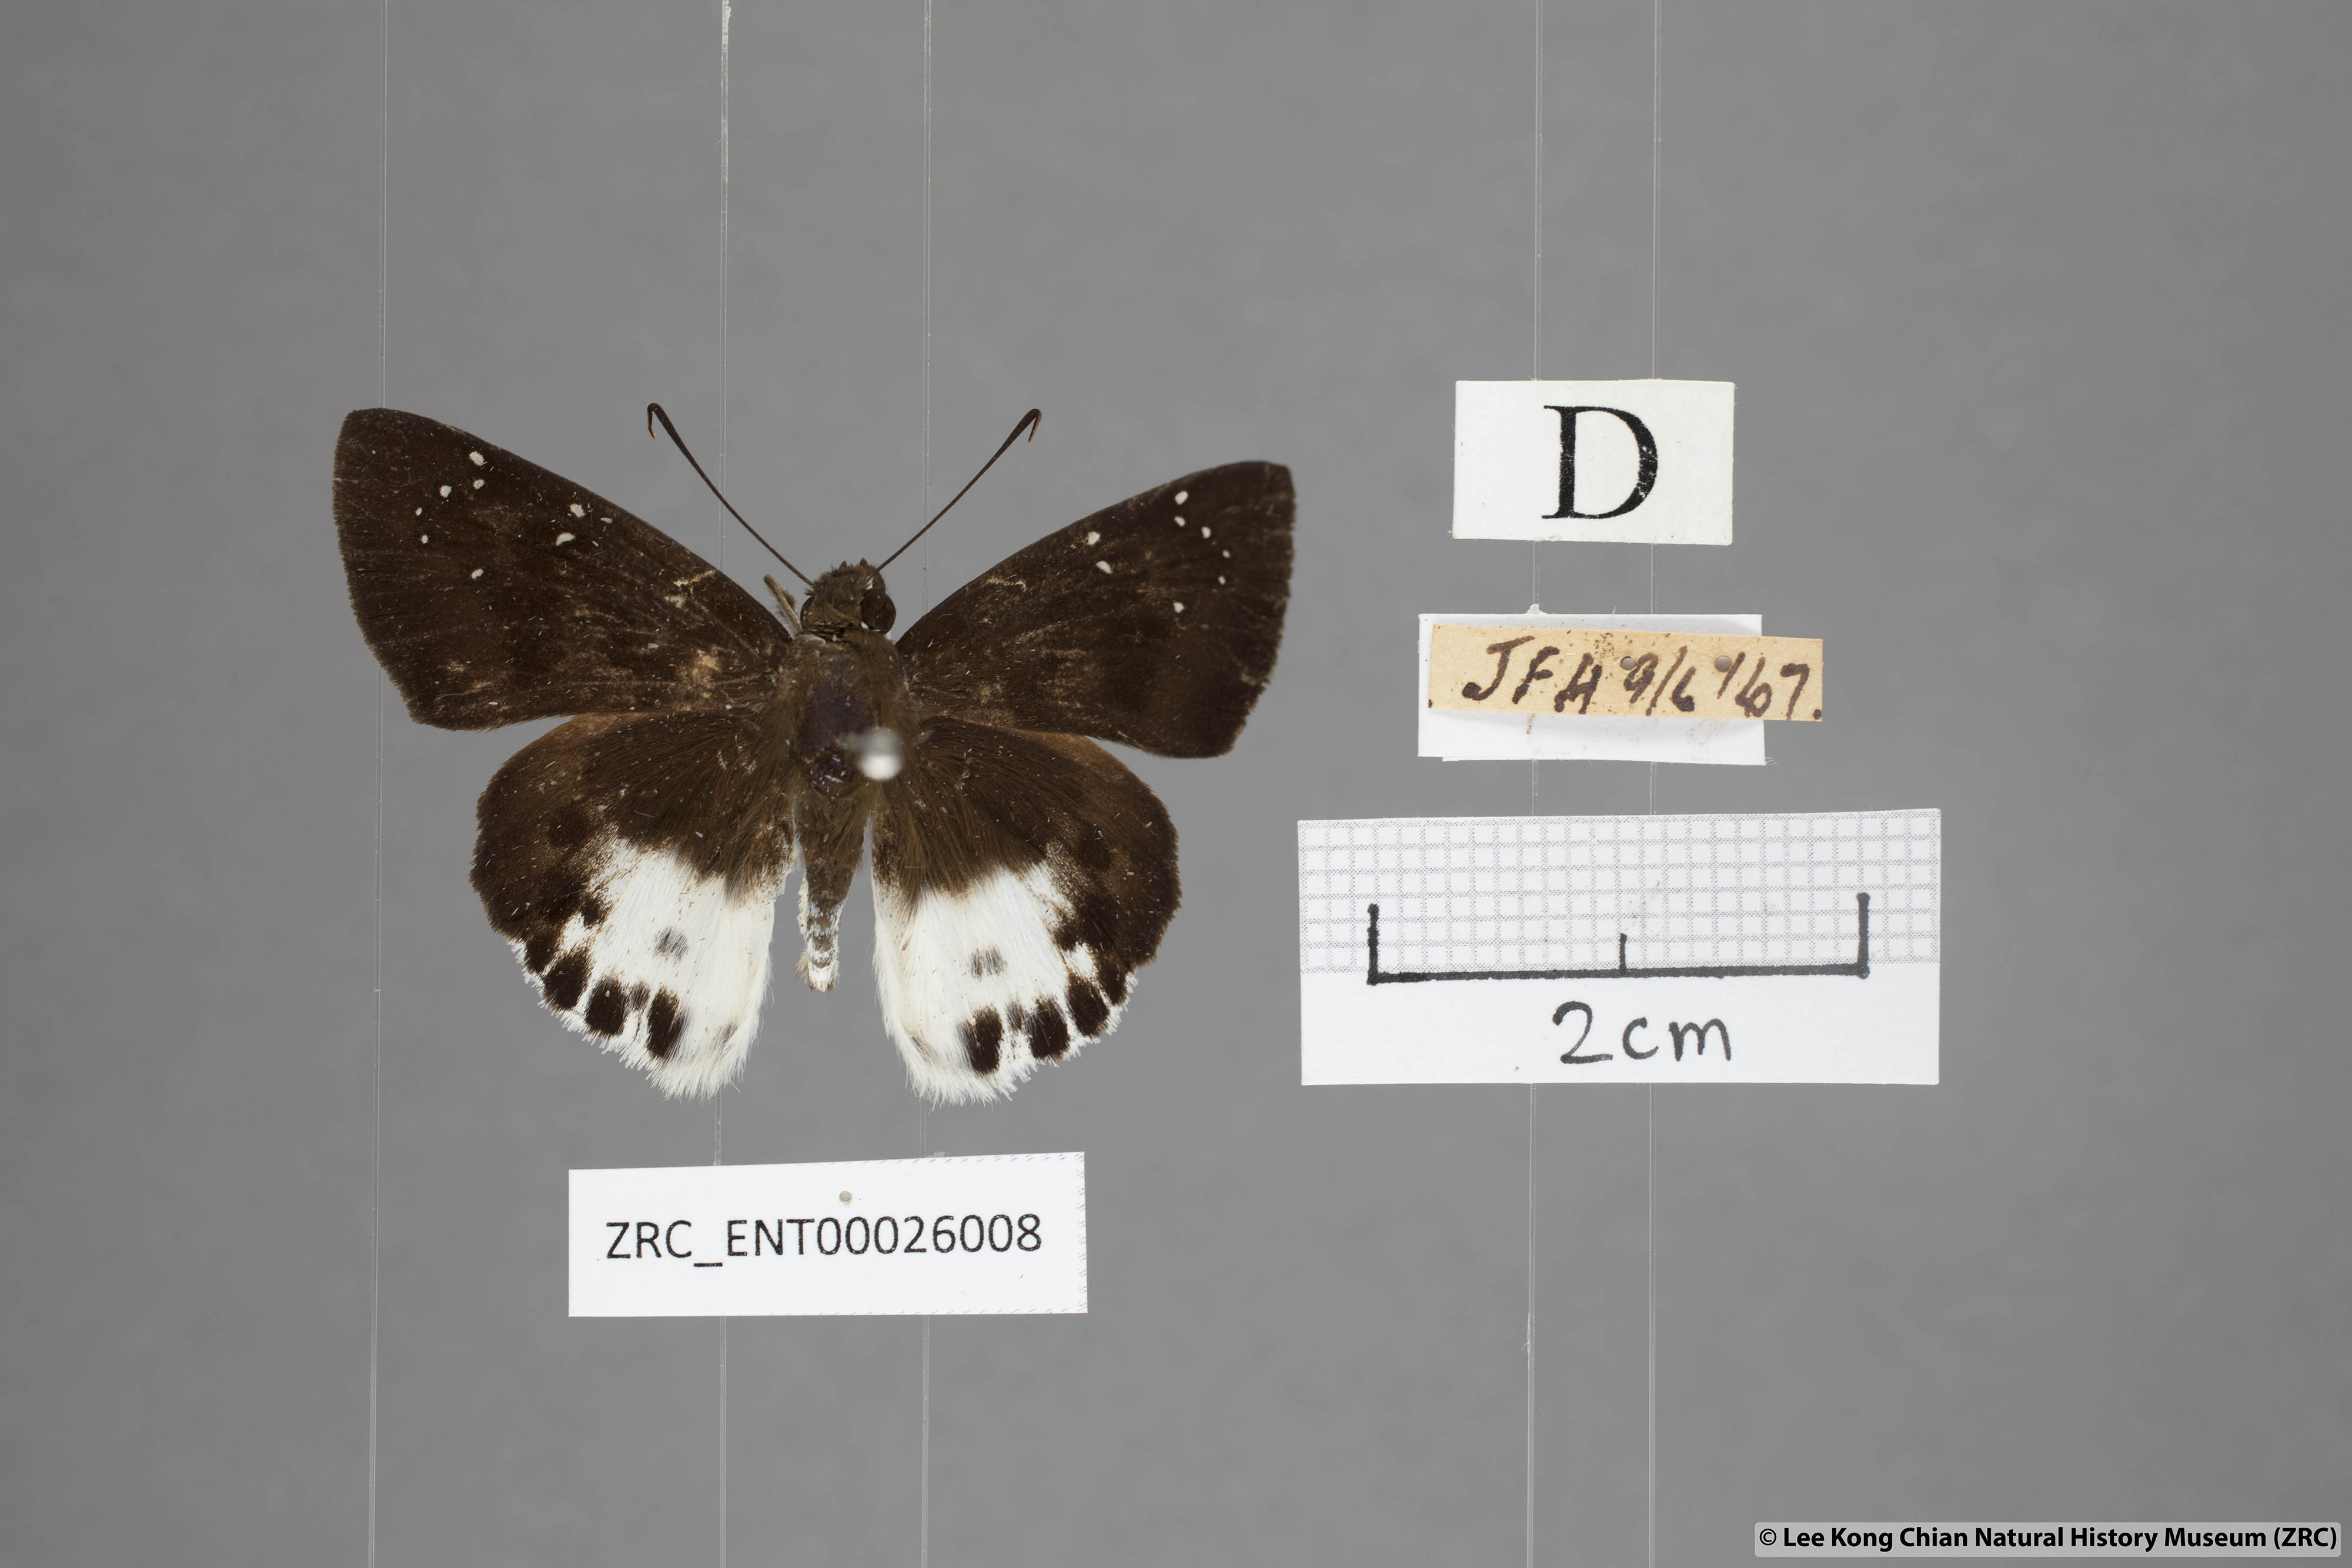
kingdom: Animalia
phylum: Arthropoda
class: Insecta
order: Lepidoptera
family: Hesperiidae
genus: Tagiades
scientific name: Tagiades menaka
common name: Dark-edged snow flat
